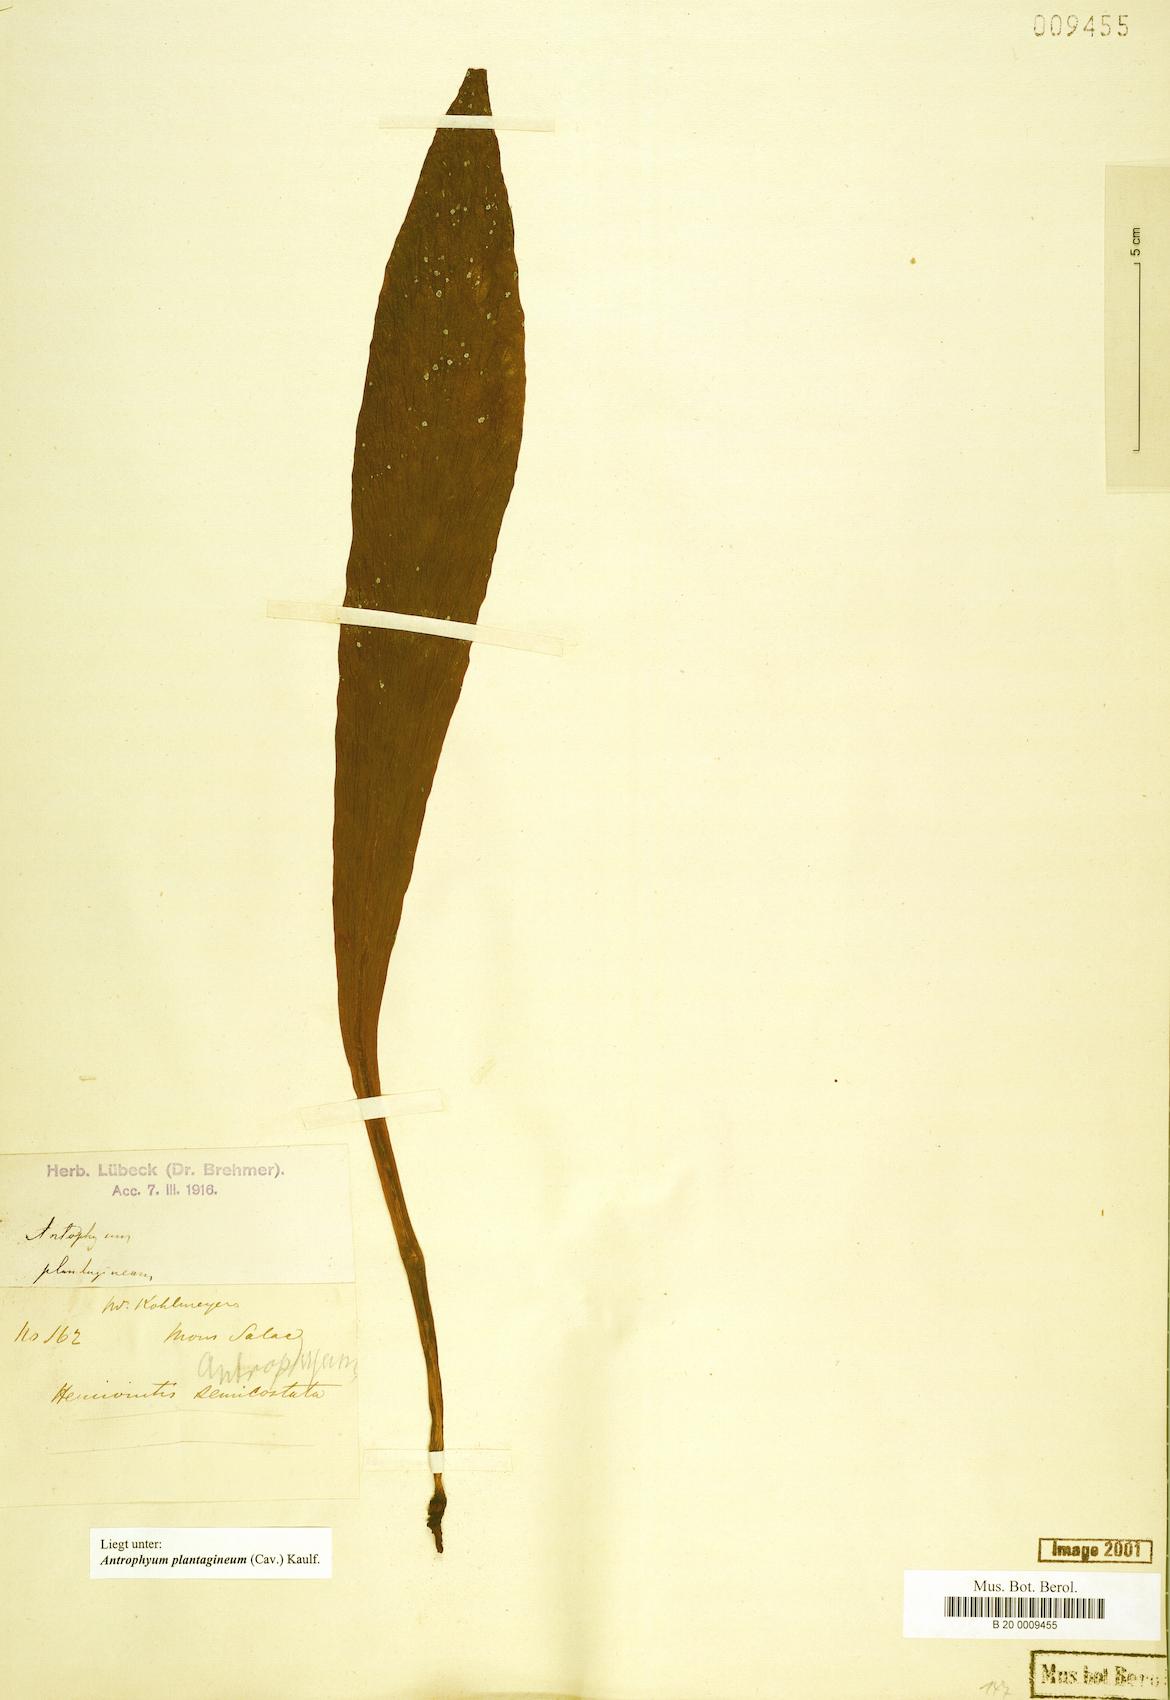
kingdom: Plantae
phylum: Tracheophyta
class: Polypodiopsida
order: Polypodiales
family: Pteridaceae
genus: Antrophyum
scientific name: Antrophyum plantagineum
